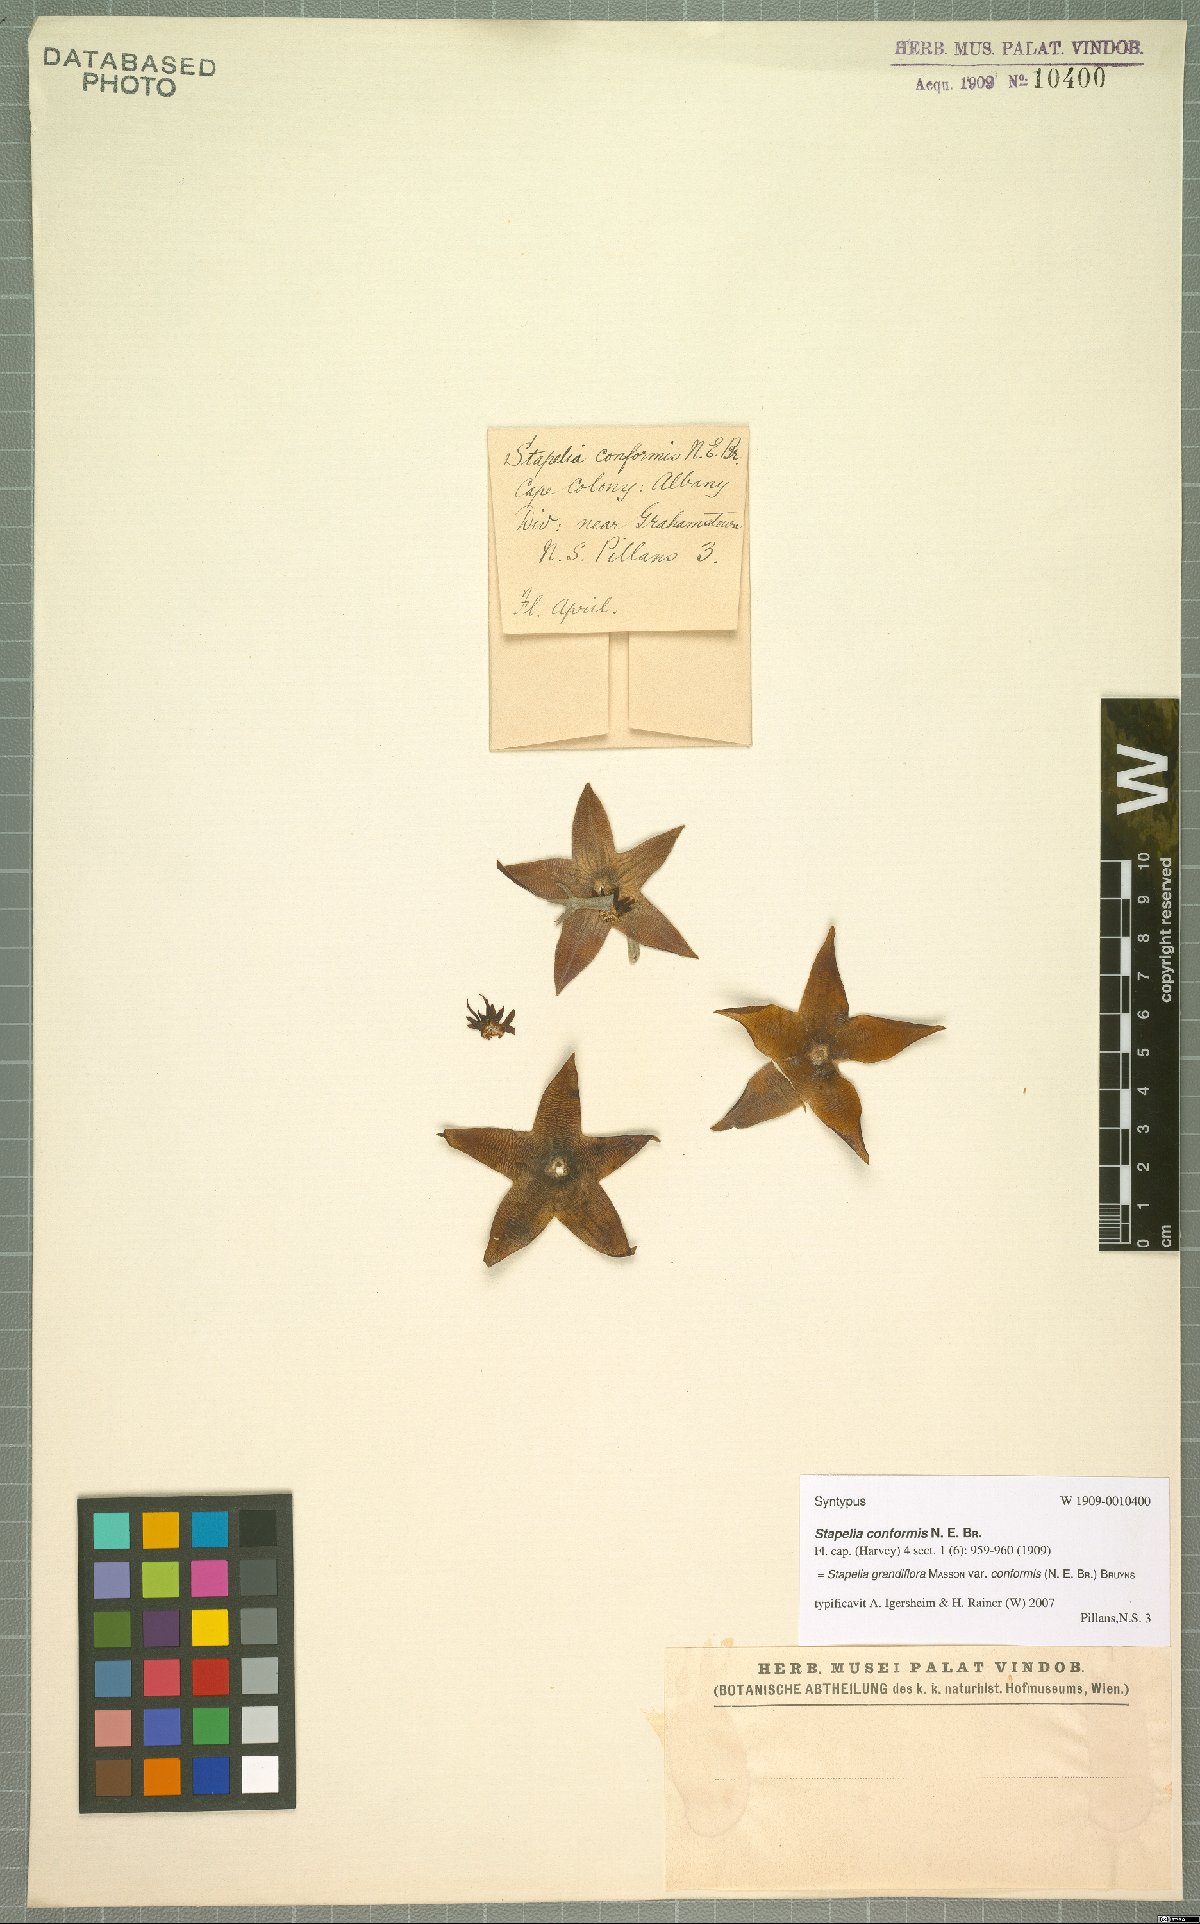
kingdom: Plantae
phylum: Tracheophyta
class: Magnoliopsida
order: Gentianales
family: Apocynaceae
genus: Ceropegia
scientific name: Ceropegia grandiflora
